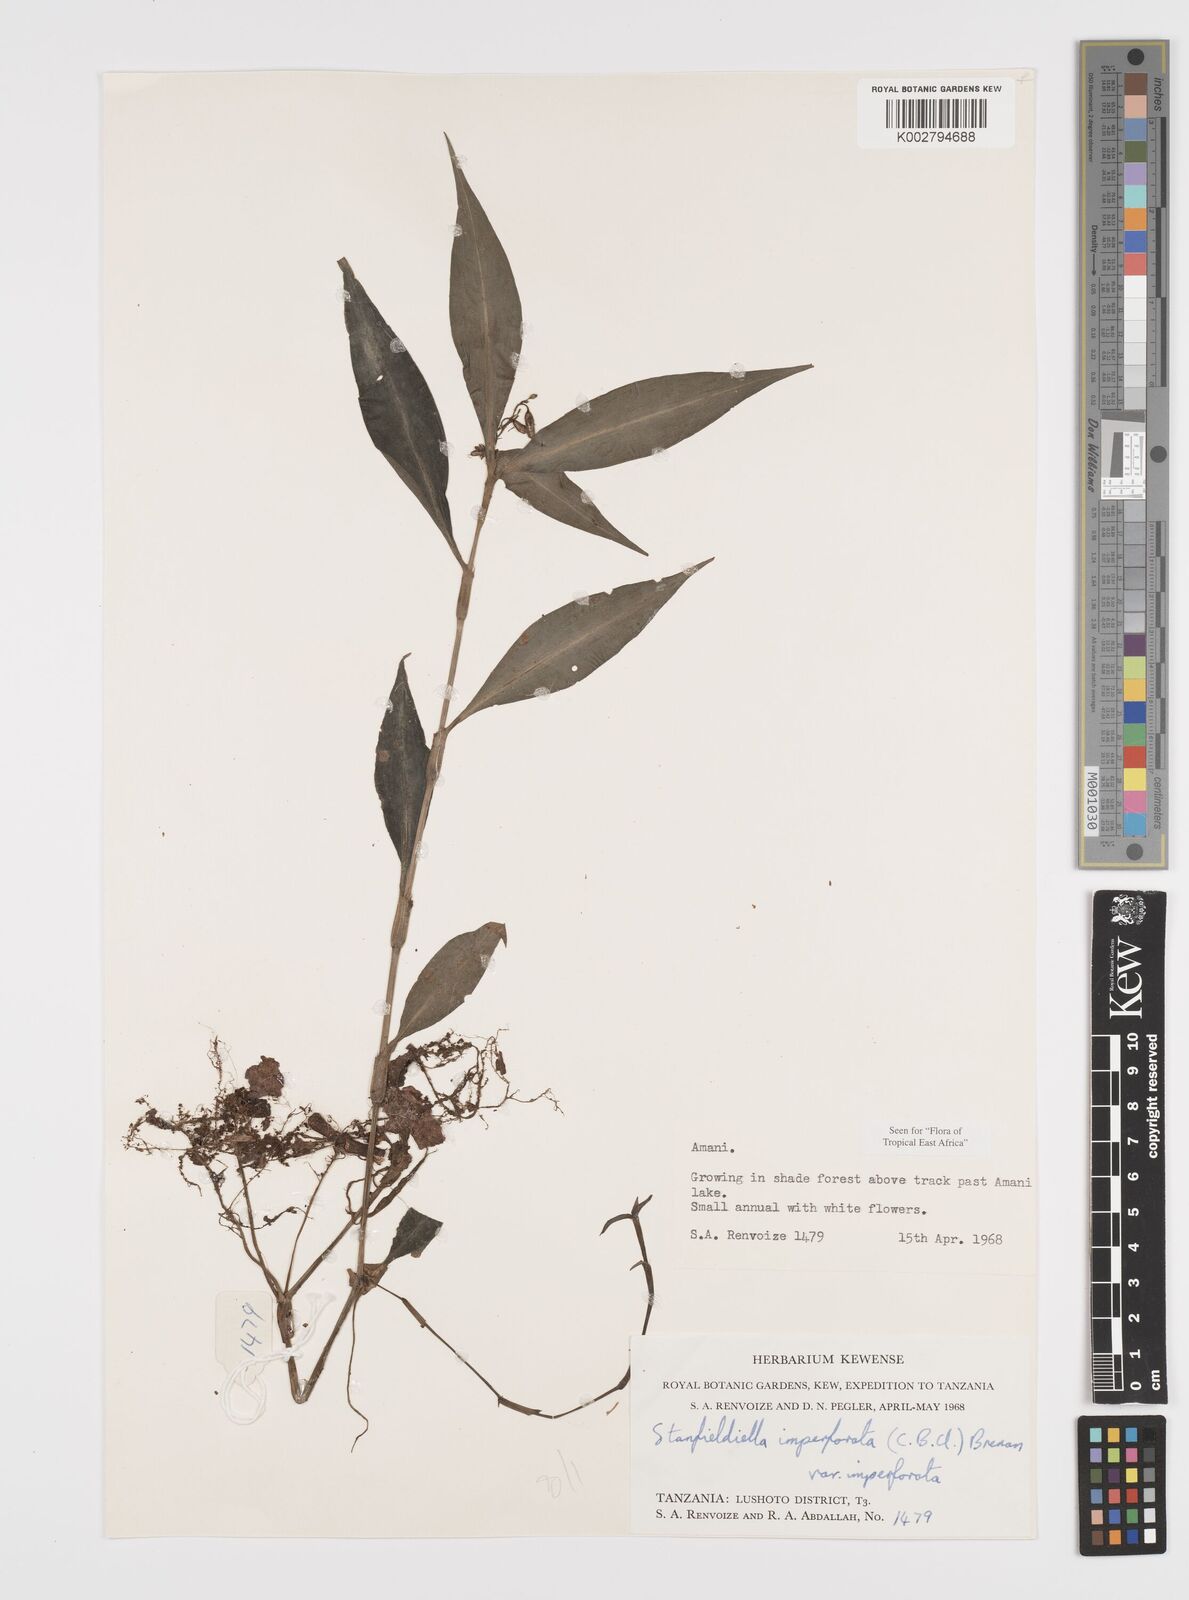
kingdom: Plantae
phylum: Tracheophyta
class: Liliopsida
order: Commelinales
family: Commelinaceae
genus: Stanfieldiella
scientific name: Stanfieldiella imperforata
